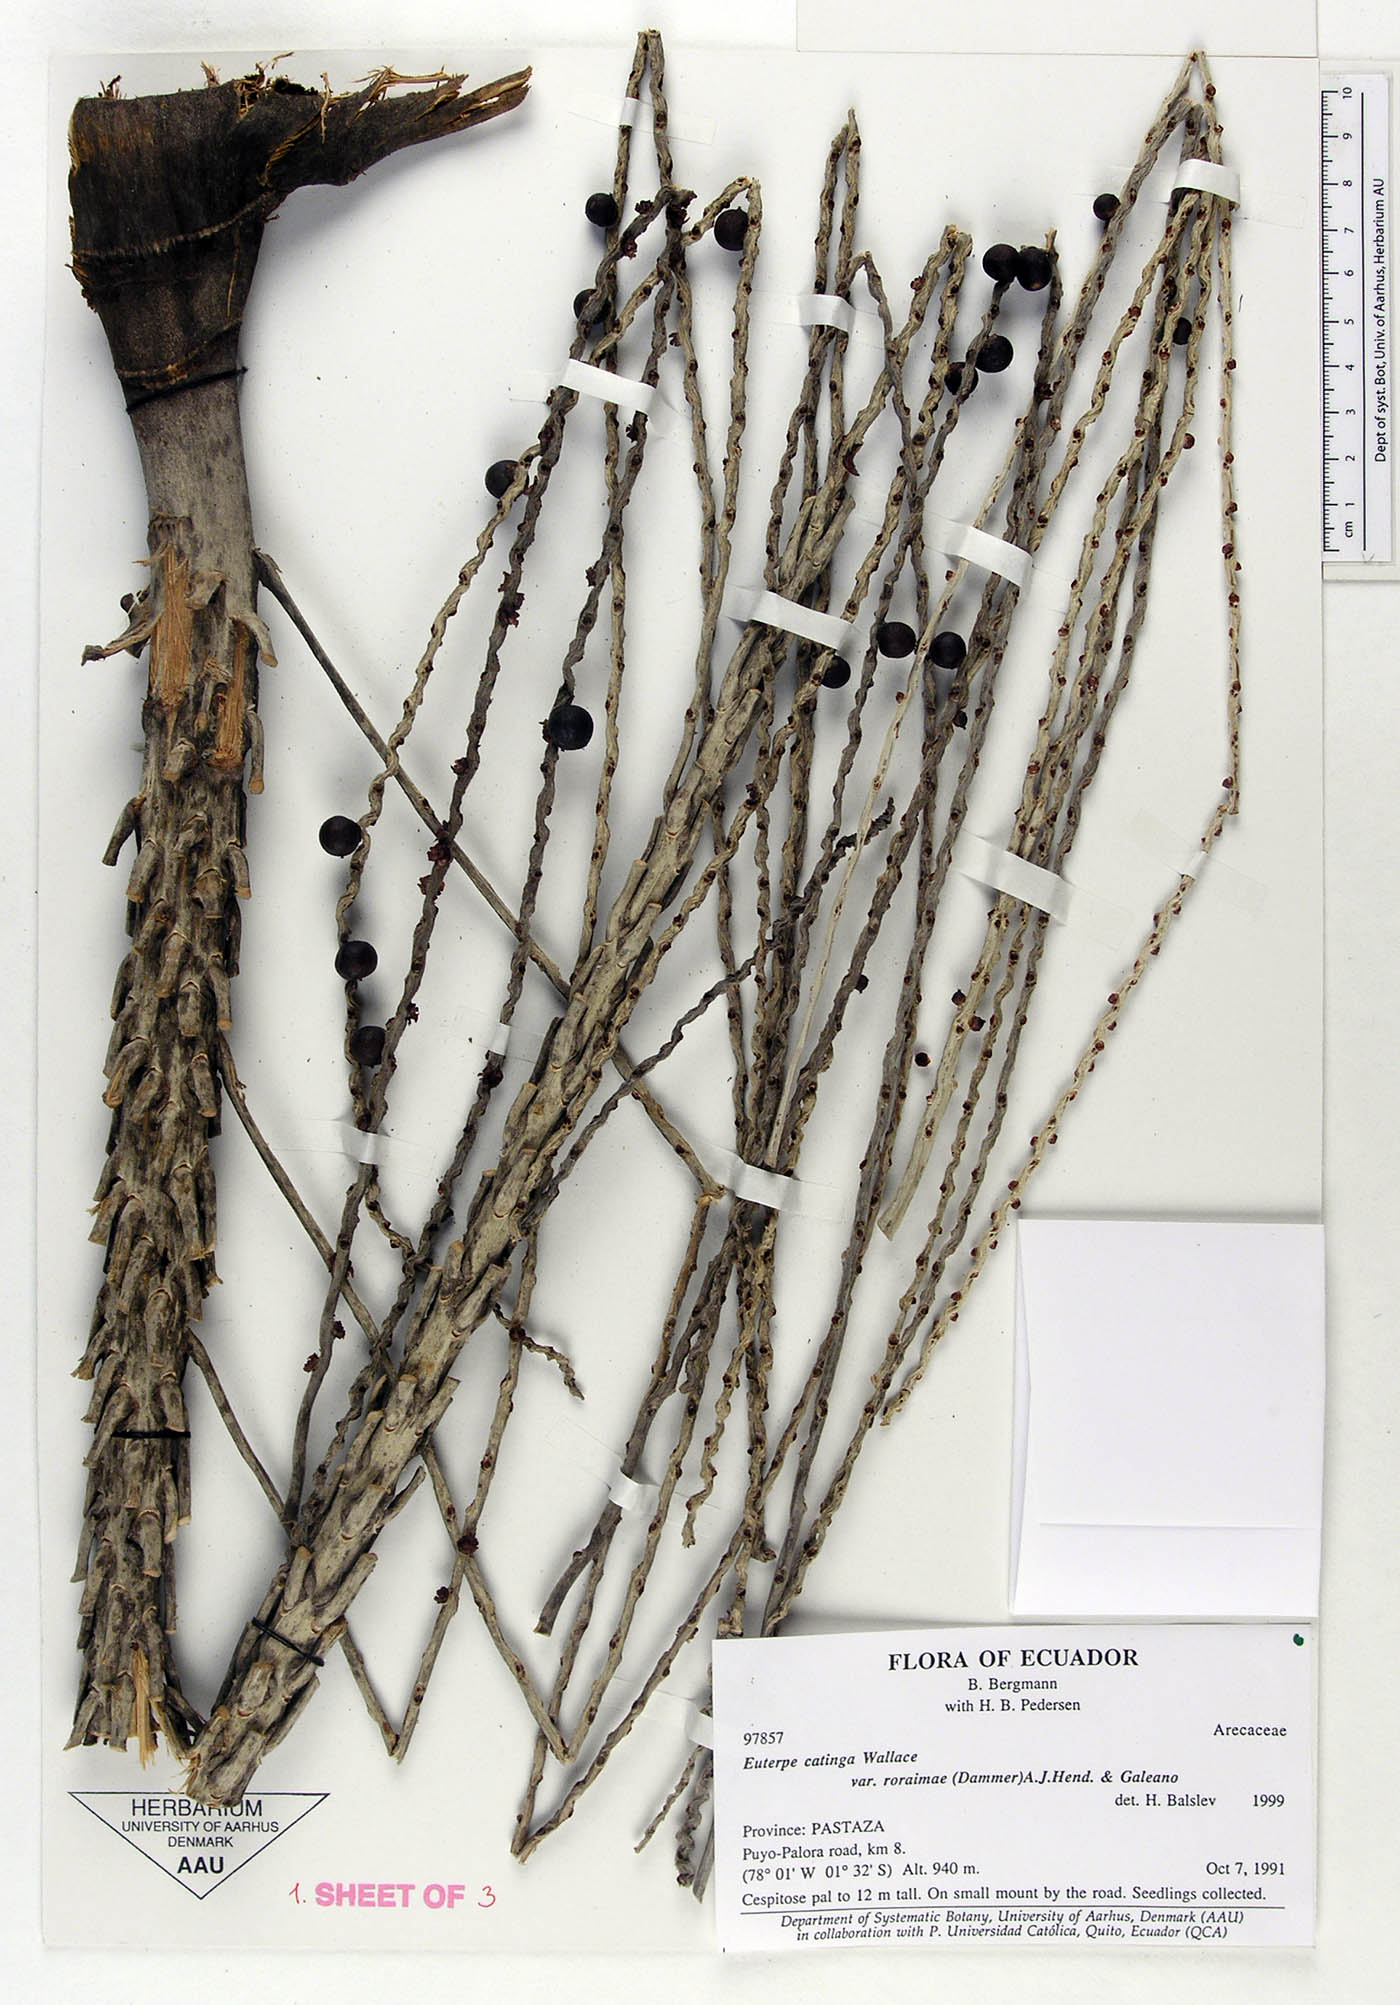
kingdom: Plantae
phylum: Tracheophyta
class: Liliopsida
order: Arecales
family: Arecaceae
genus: Euterpe
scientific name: Euterpe catinga
